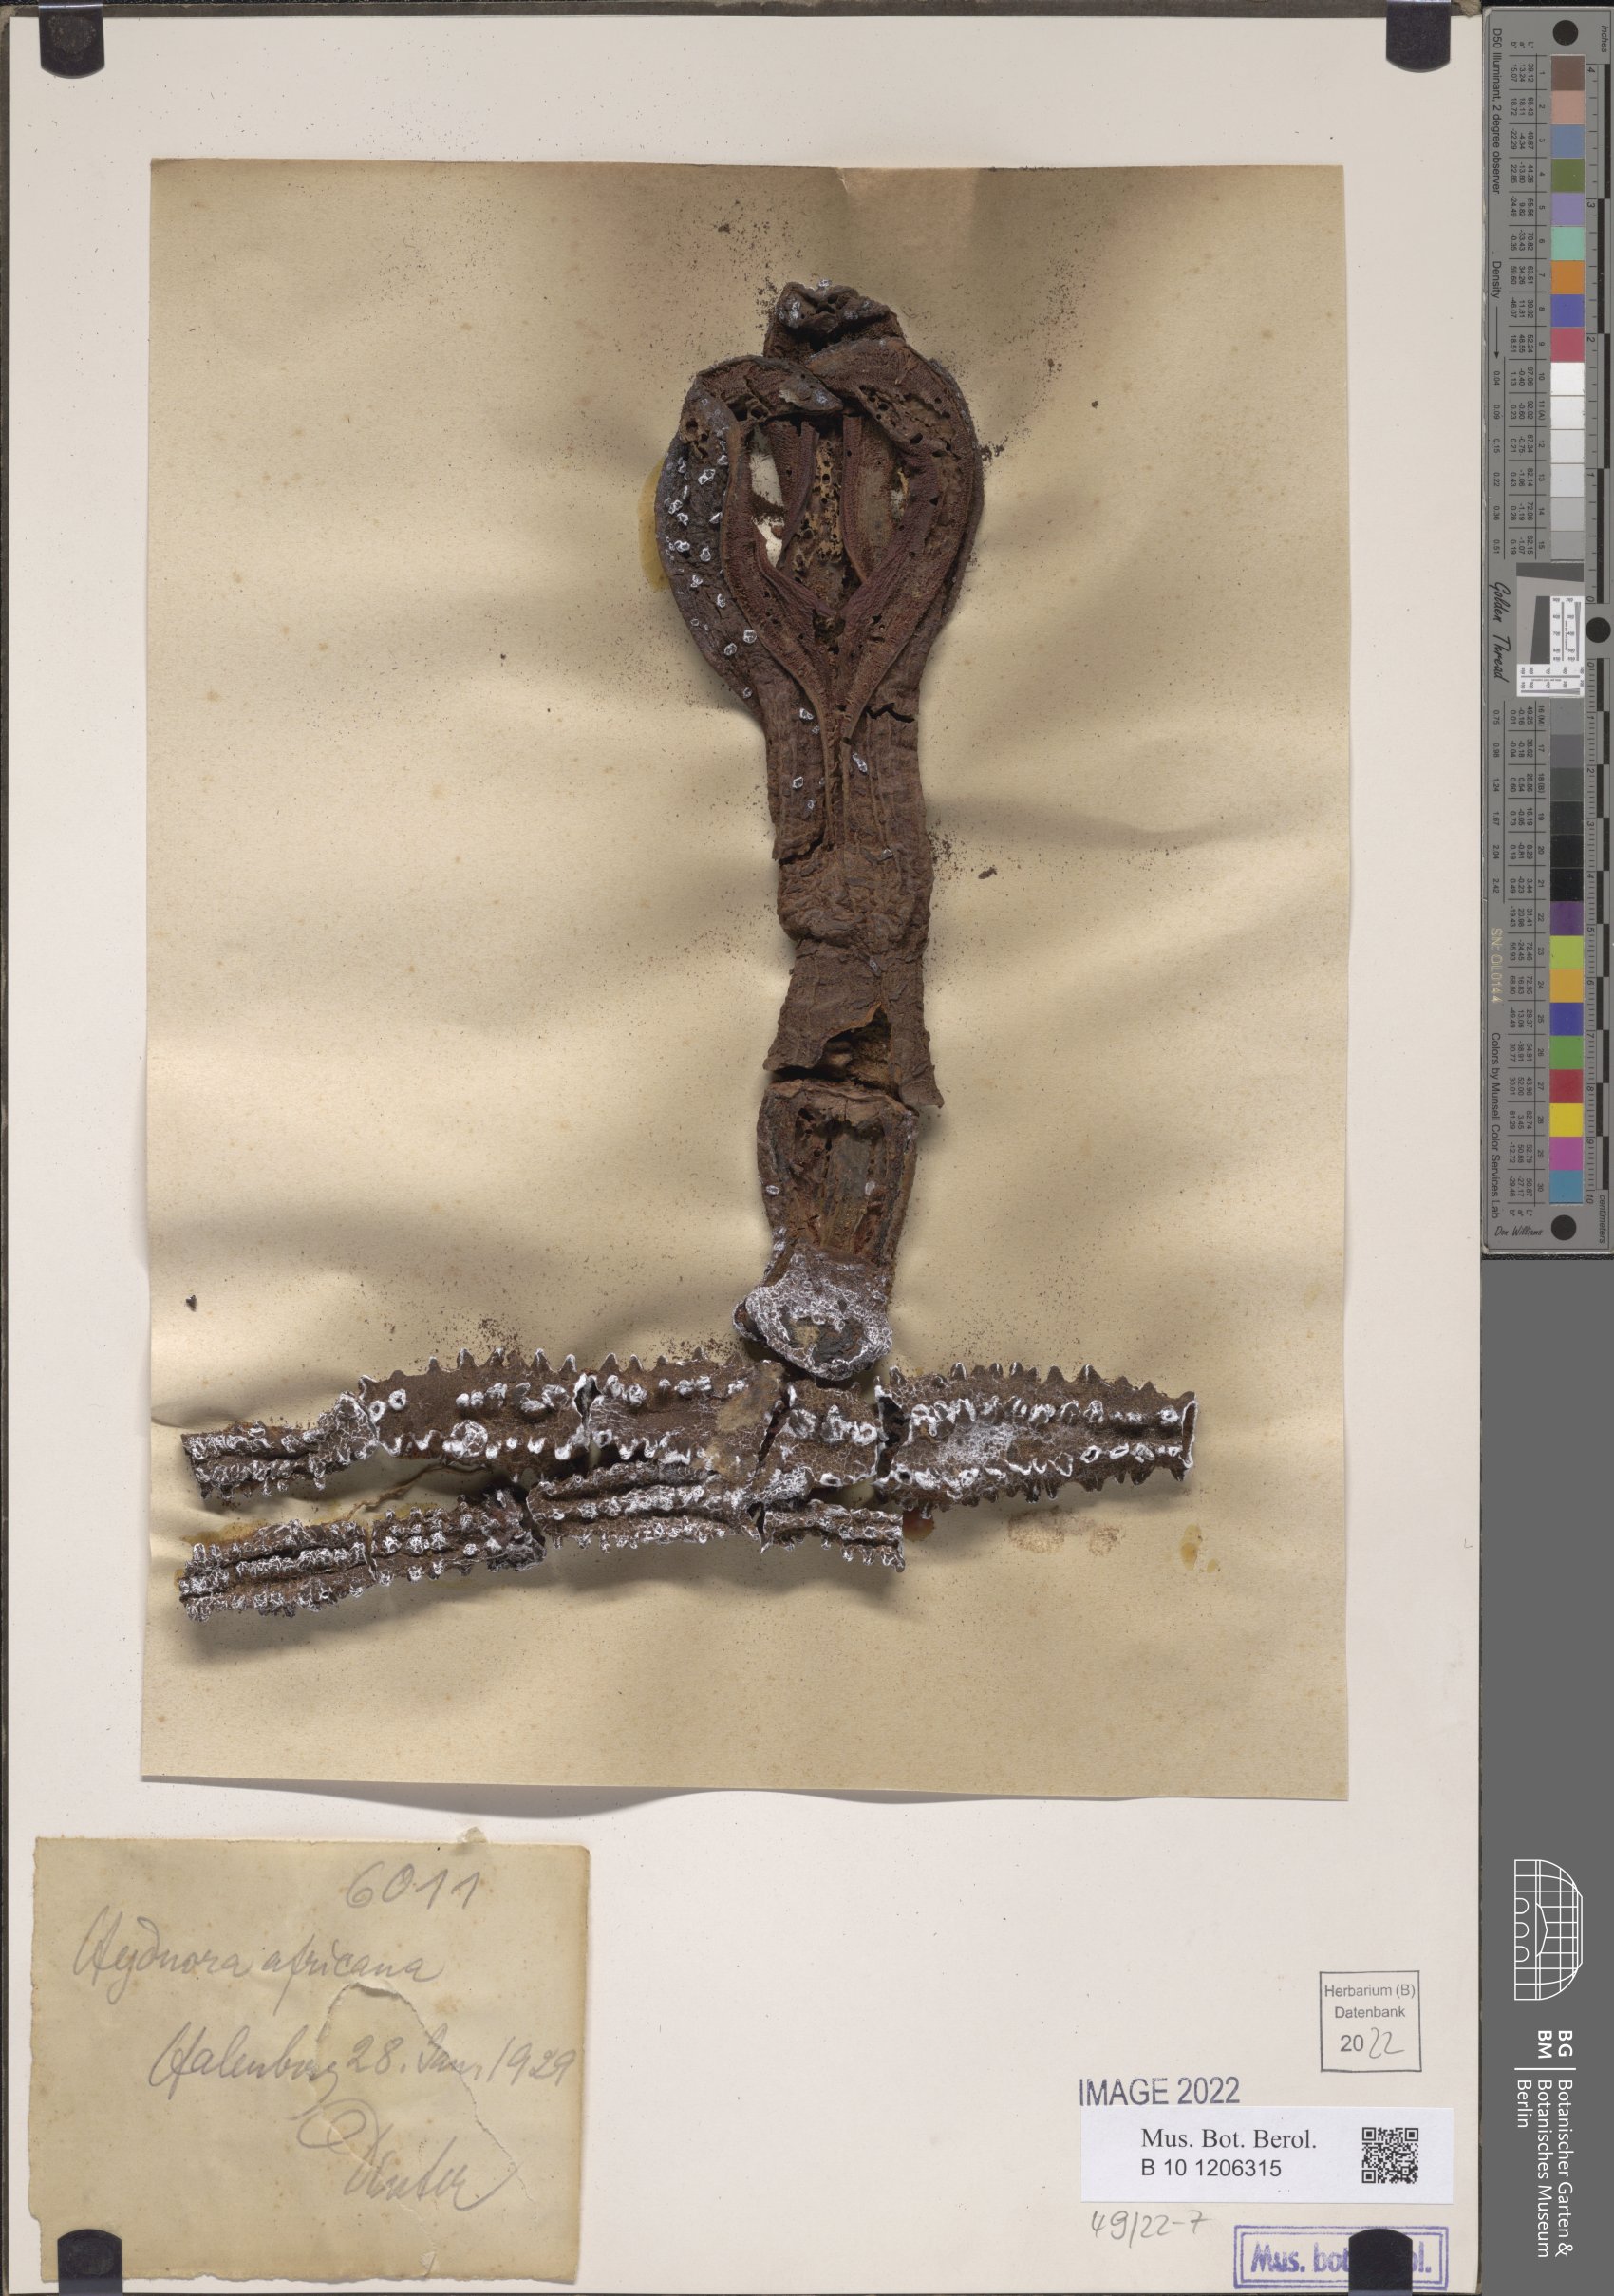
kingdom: Plantae
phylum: Tracheophyta
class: Magnoliopsida
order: Piperales
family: Hydnoraceae
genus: Hydnora
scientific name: Hydnora africana
